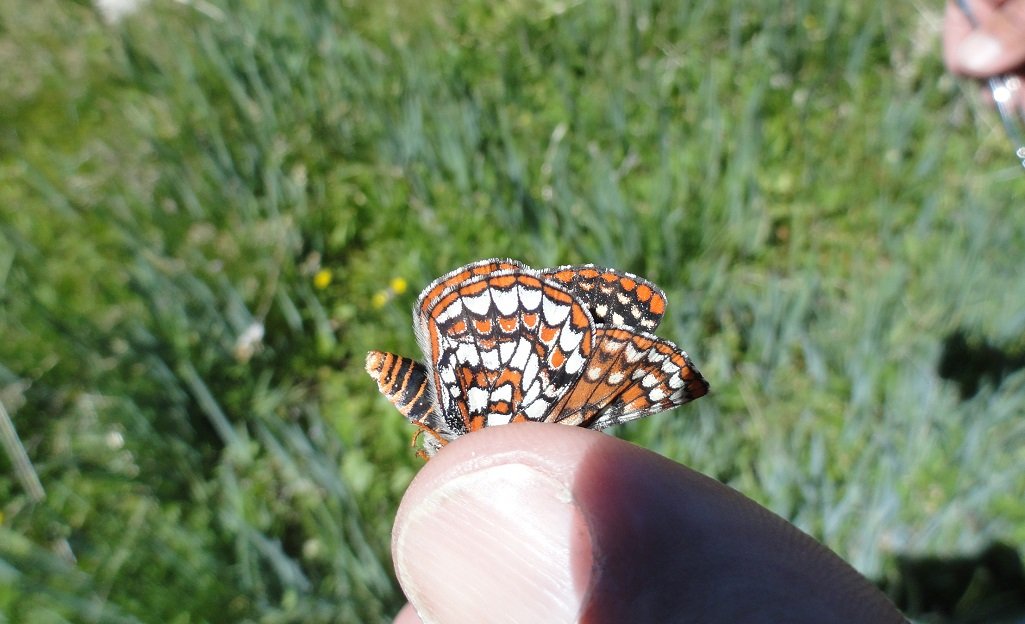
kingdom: Animalia
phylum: Arthropoda
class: Insecta
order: Lepidoptera
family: Nymphalidae
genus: Occidryas
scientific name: Occidryas editha
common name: Edith's Checkerspot
